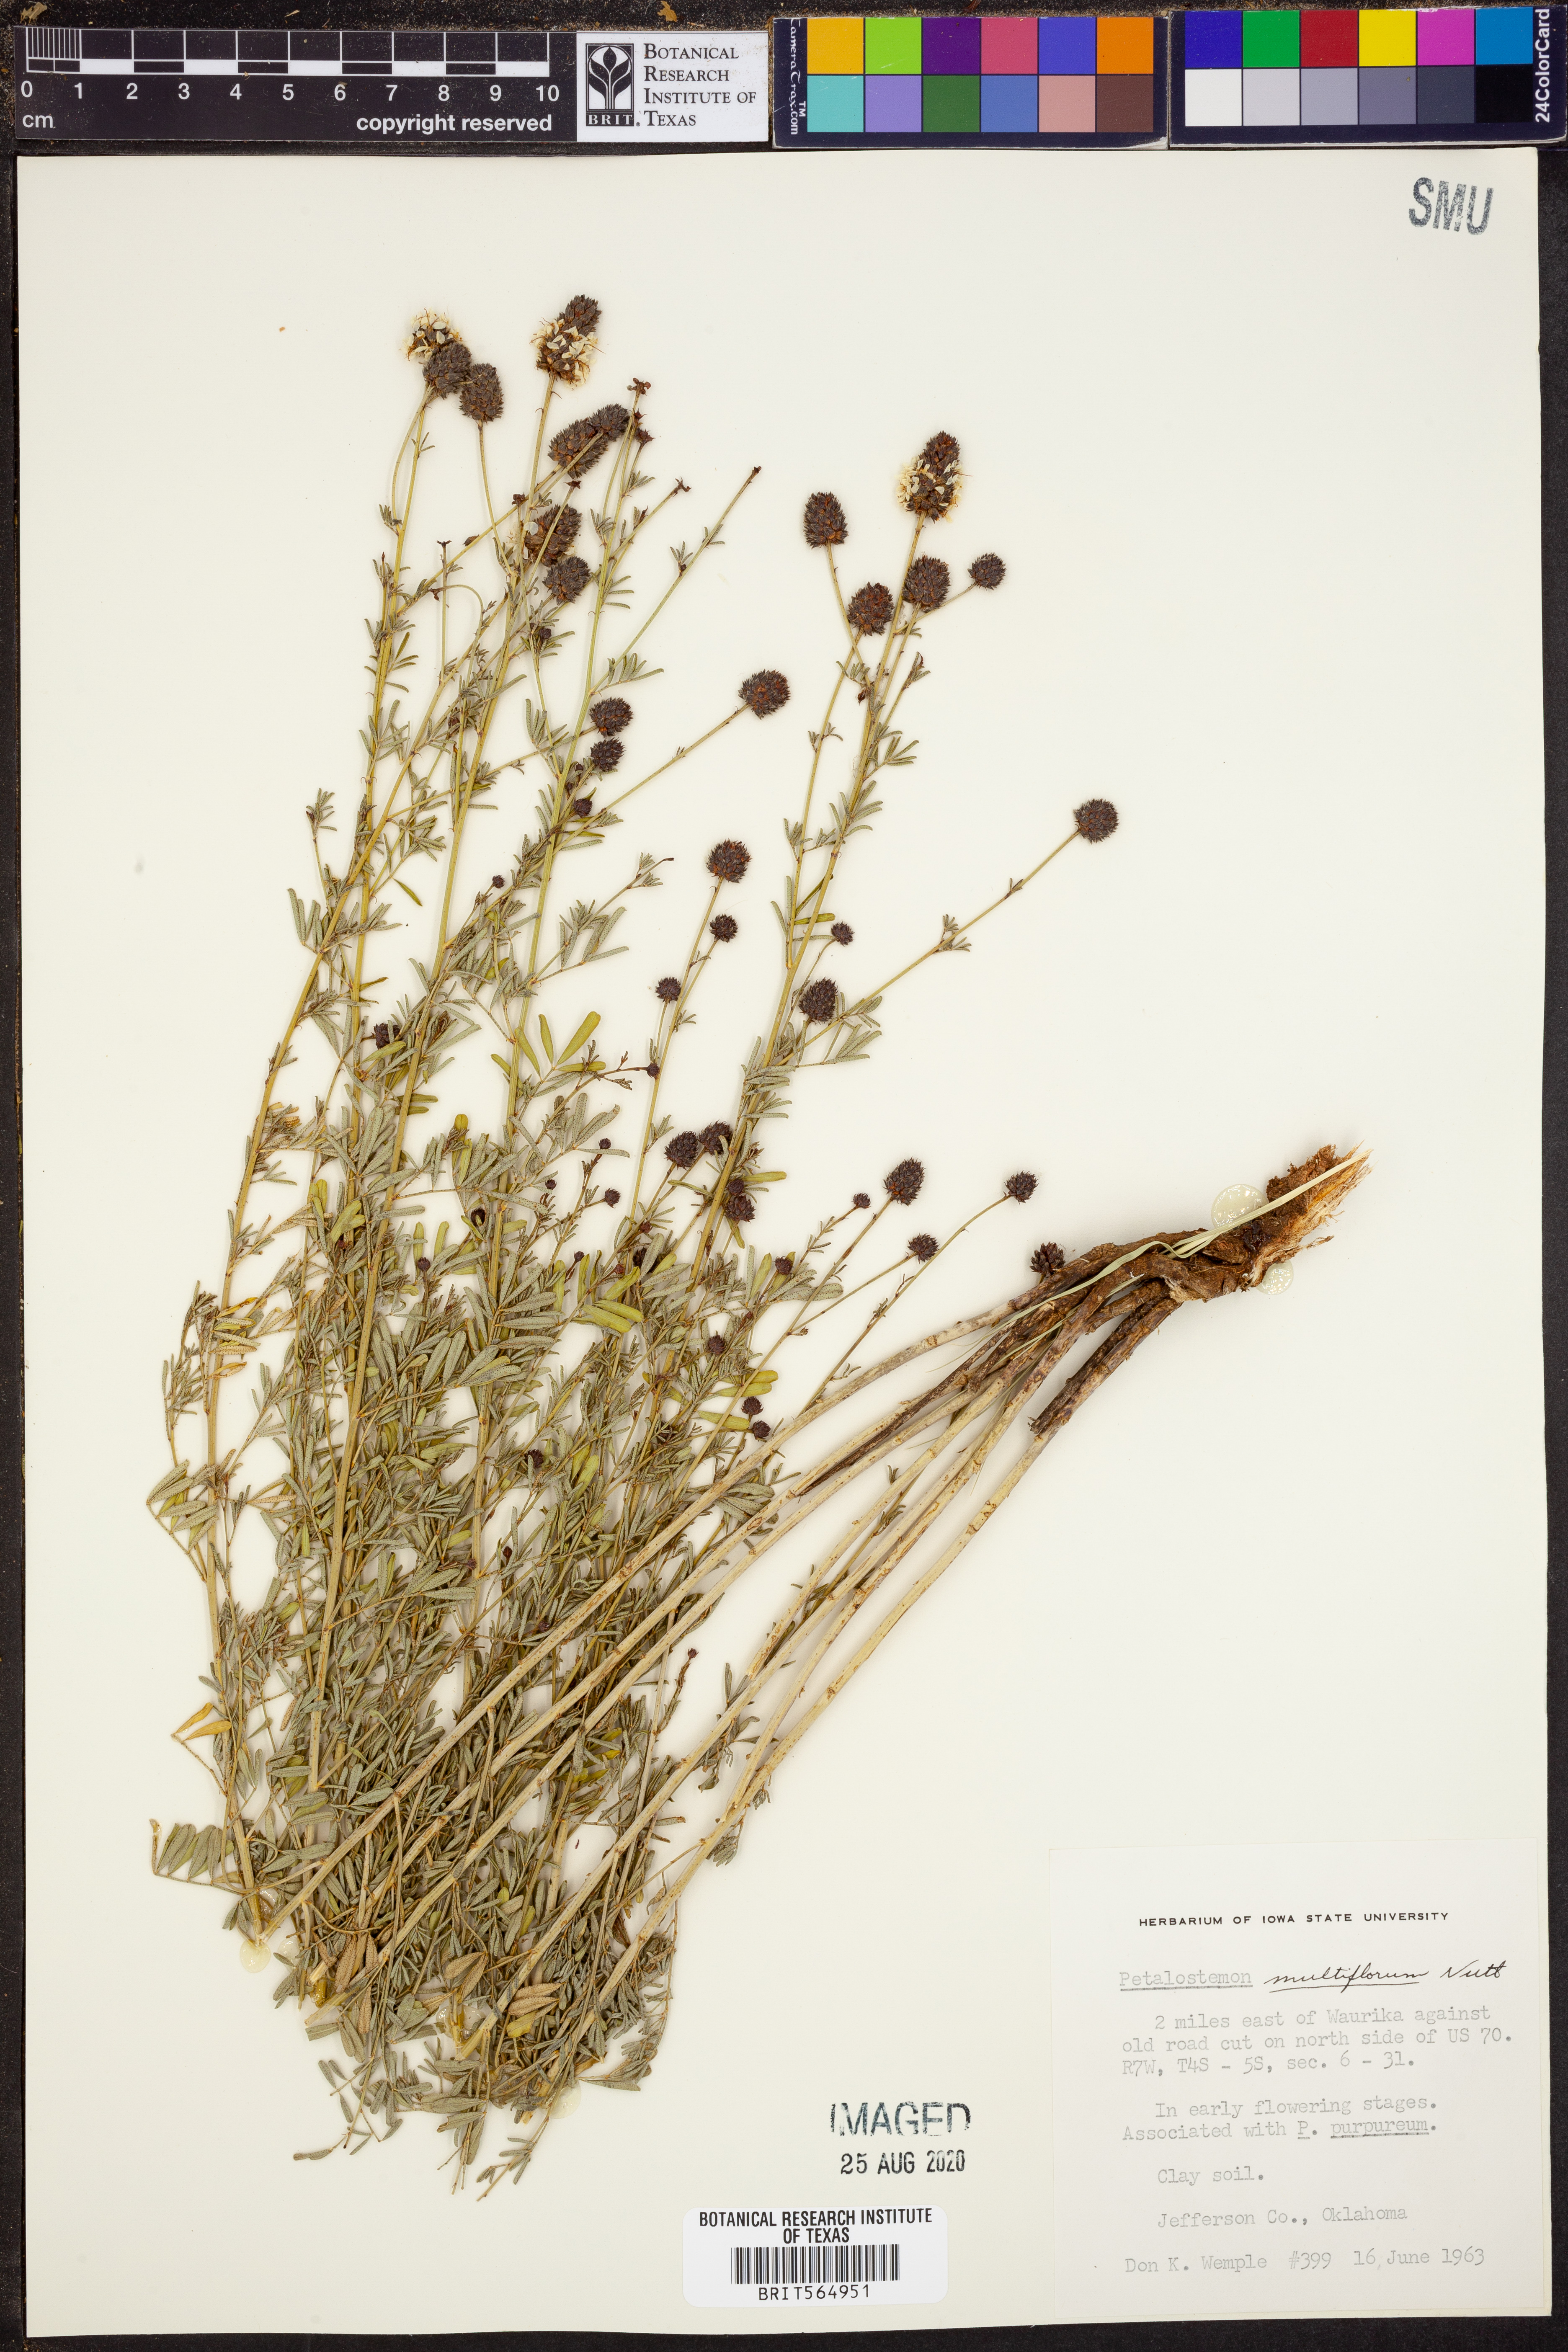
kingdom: Plantae
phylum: Tracheophyta
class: Magnoliopsida
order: Fabales
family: Fabaceae
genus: Dalea
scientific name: Dalea multiflora
